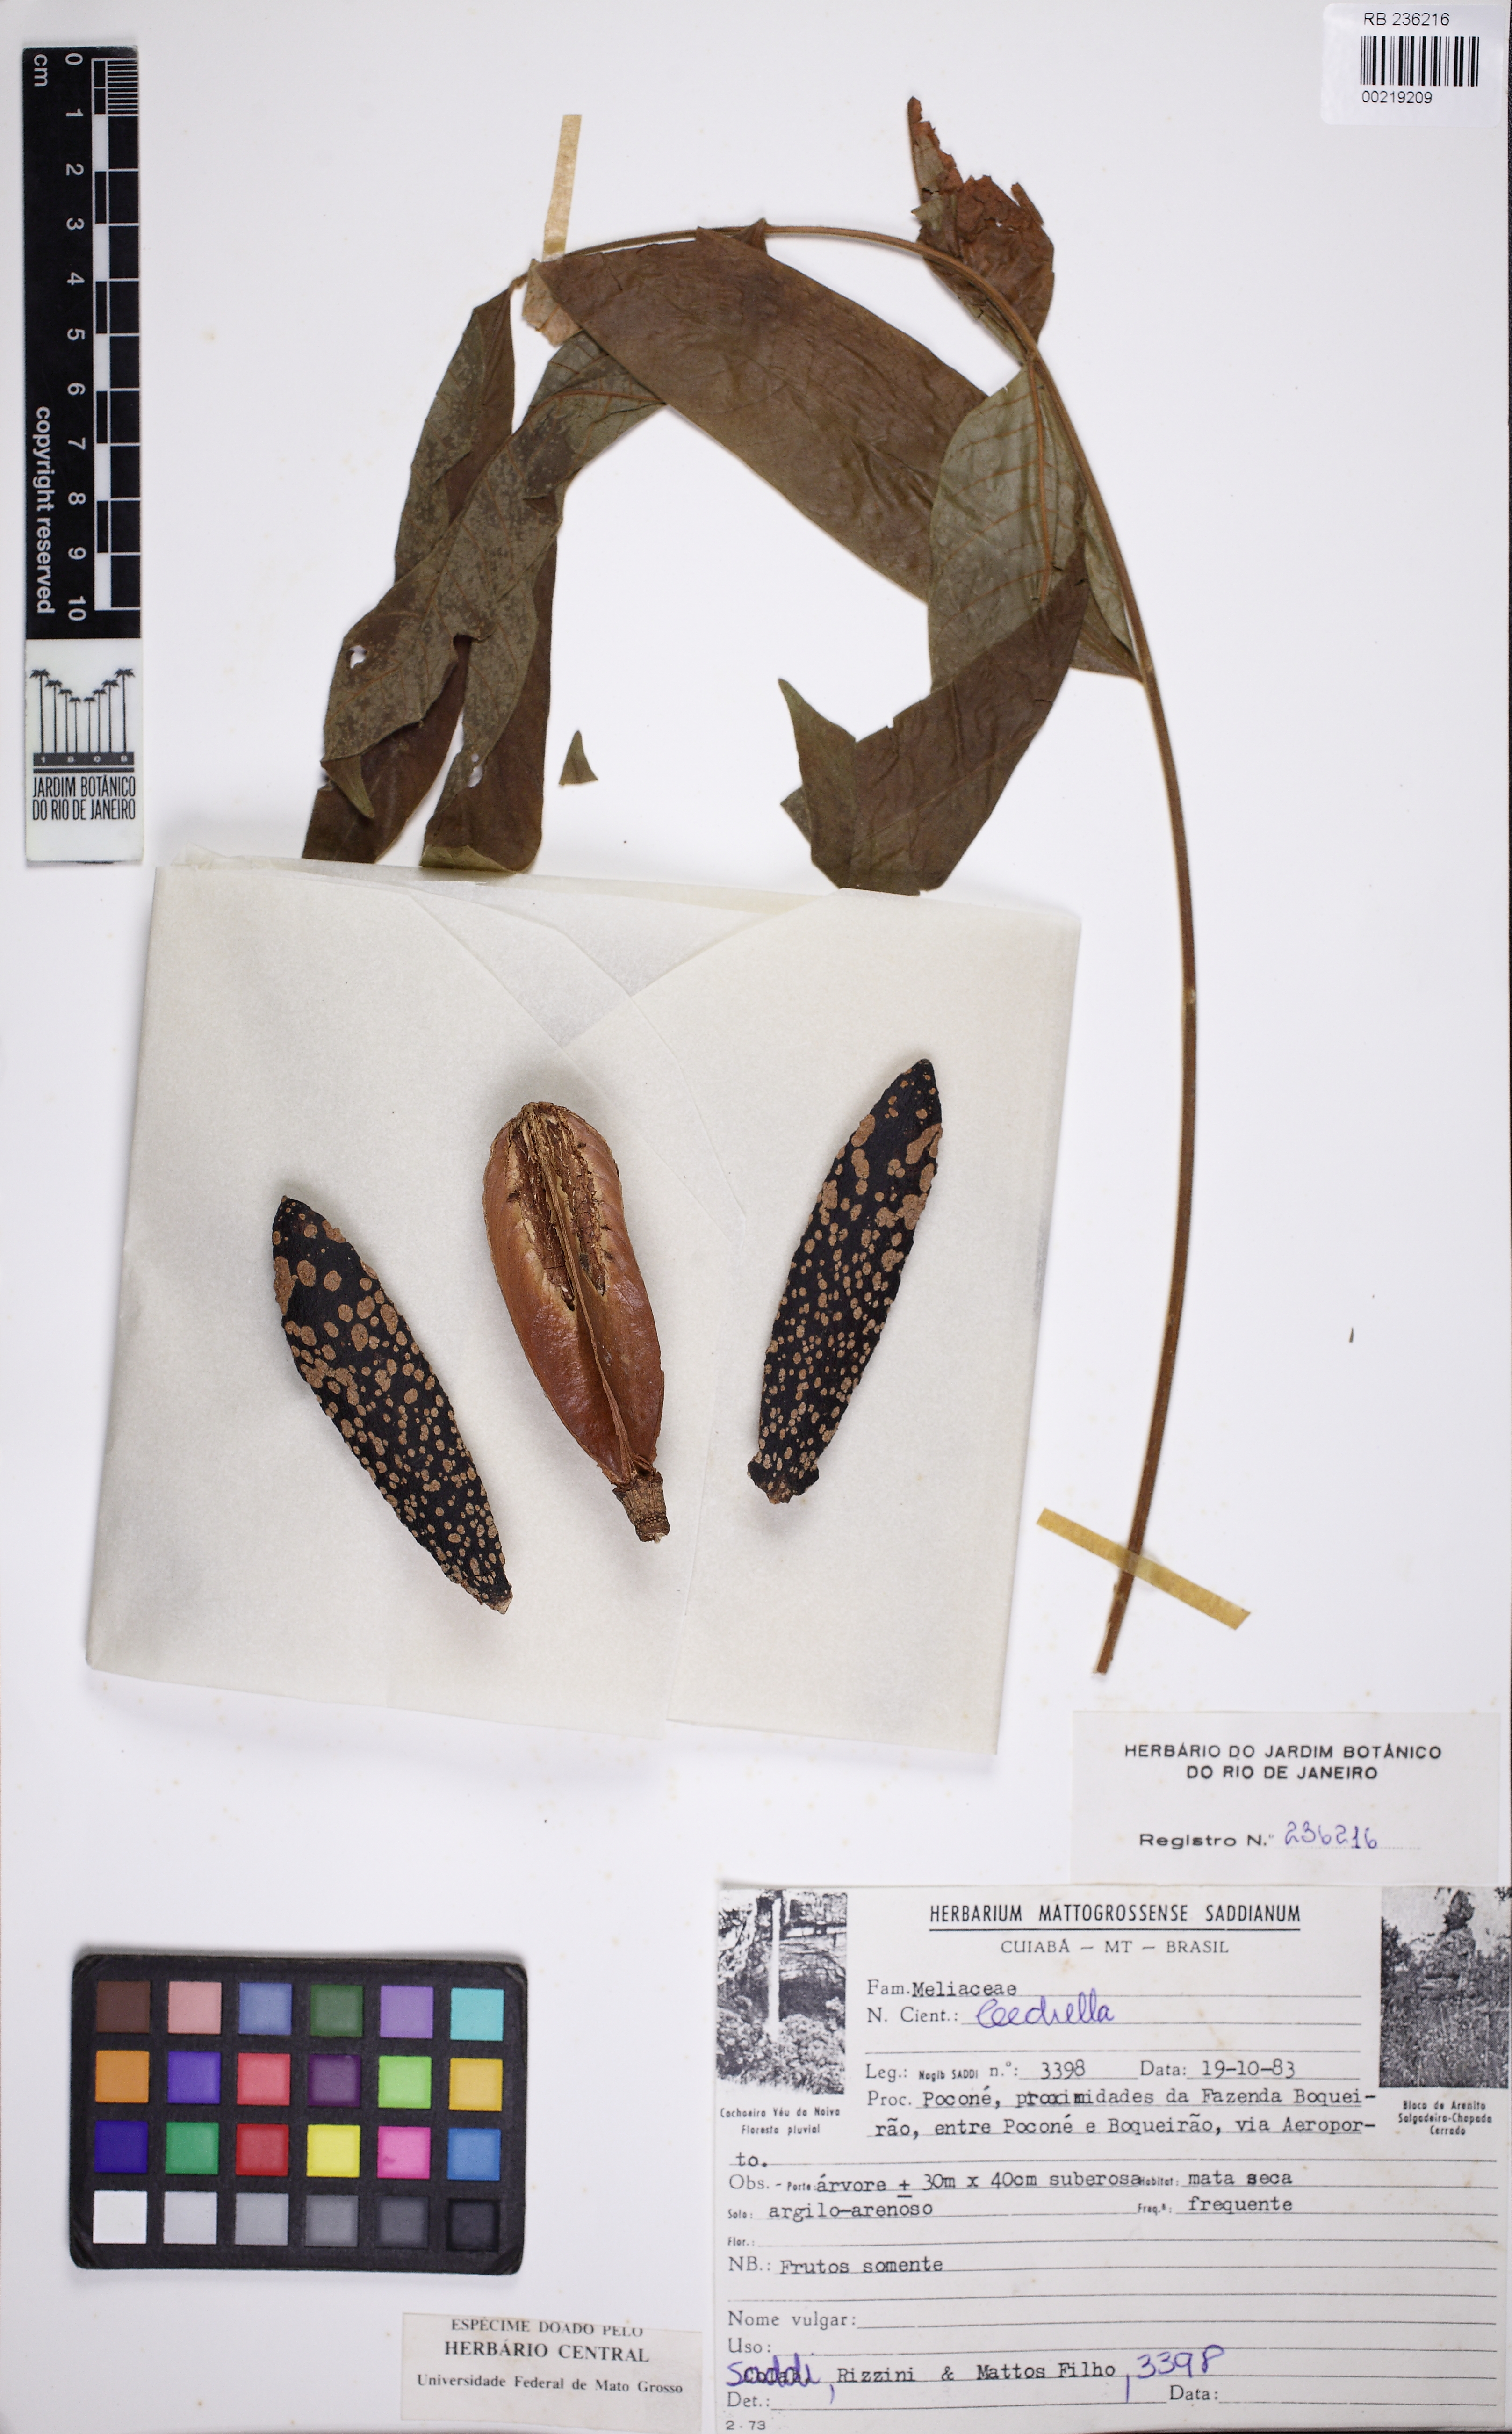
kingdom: Plantae
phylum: Tracheophyta
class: Magnoliopsida
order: Sapindales
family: Meliaceae
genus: Cedrela
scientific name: Cedrela
